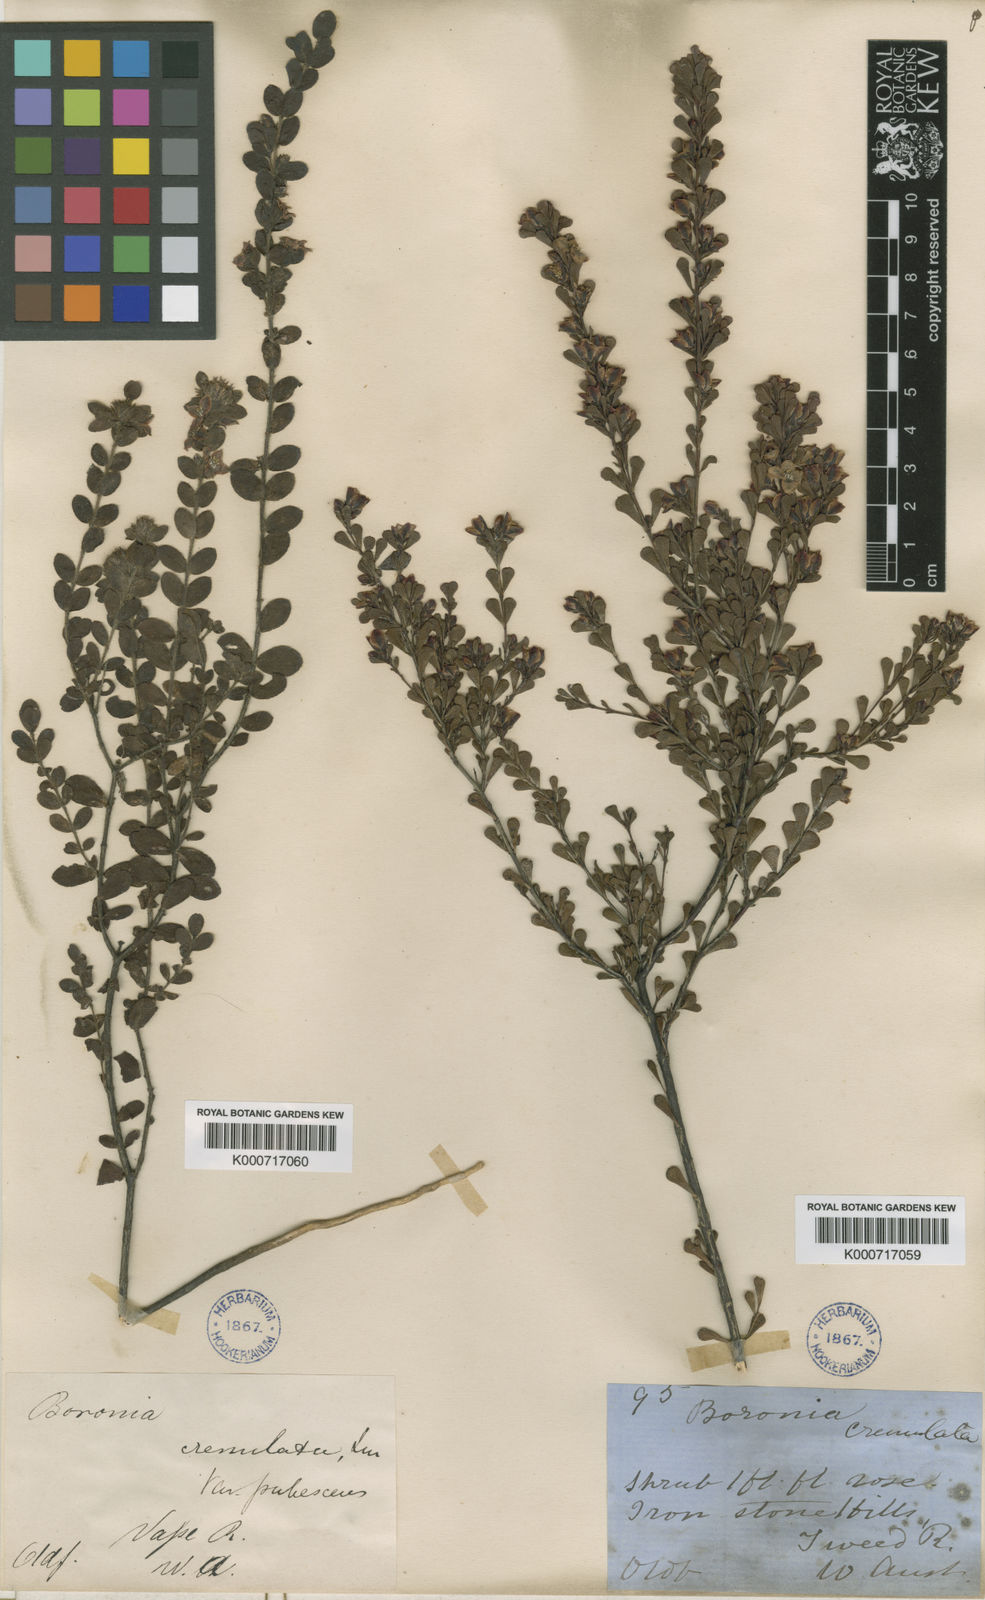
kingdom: Plantae
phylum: Tracheophyta
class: Magnoliopsida
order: Sapindales
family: Rutaceae
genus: Boronia
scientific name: Boronia crenulata
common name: Aniseed boronia
